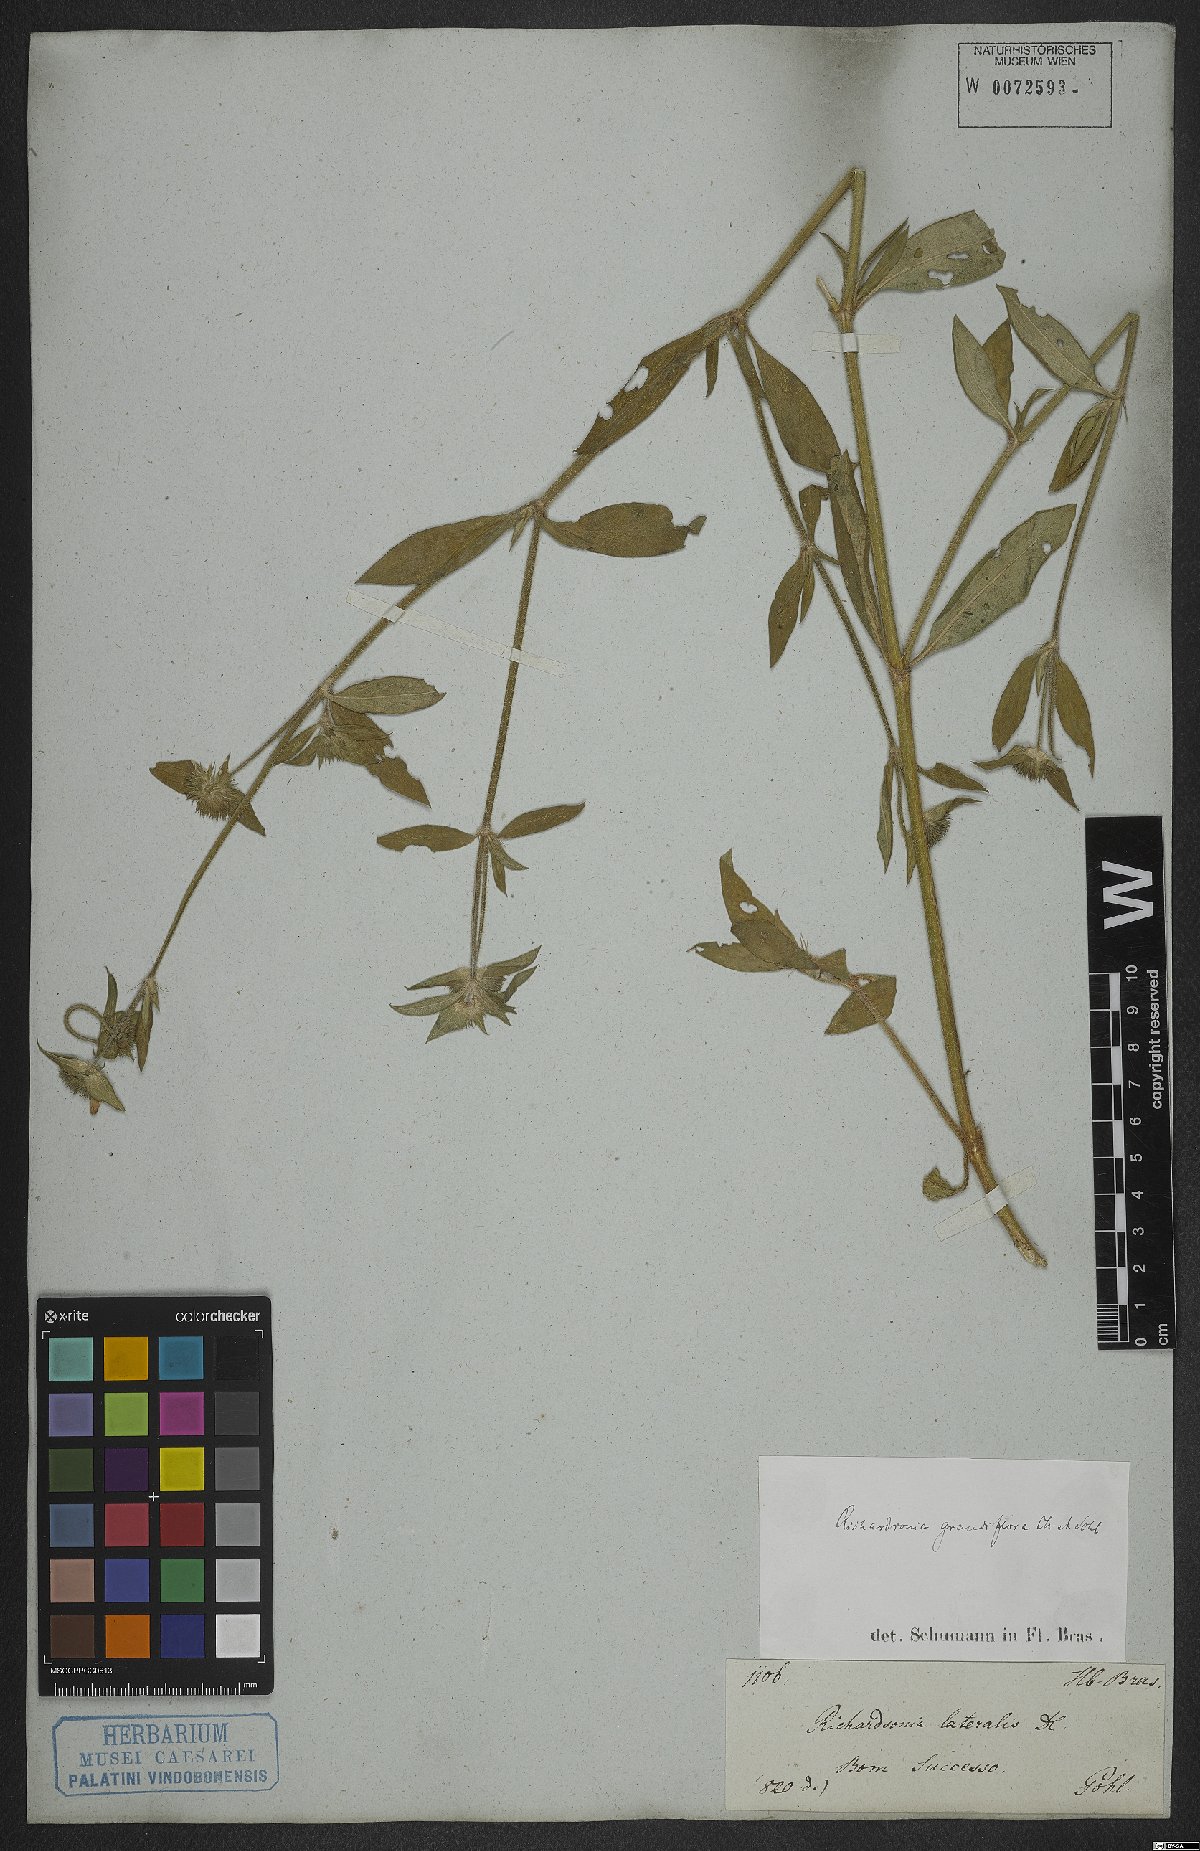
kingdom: Plantae
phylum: Tracheophyta
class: Magnoliopsida
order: Gentianales
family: Rubiaceae
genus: Richardia
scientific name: Richardia grandiflora
